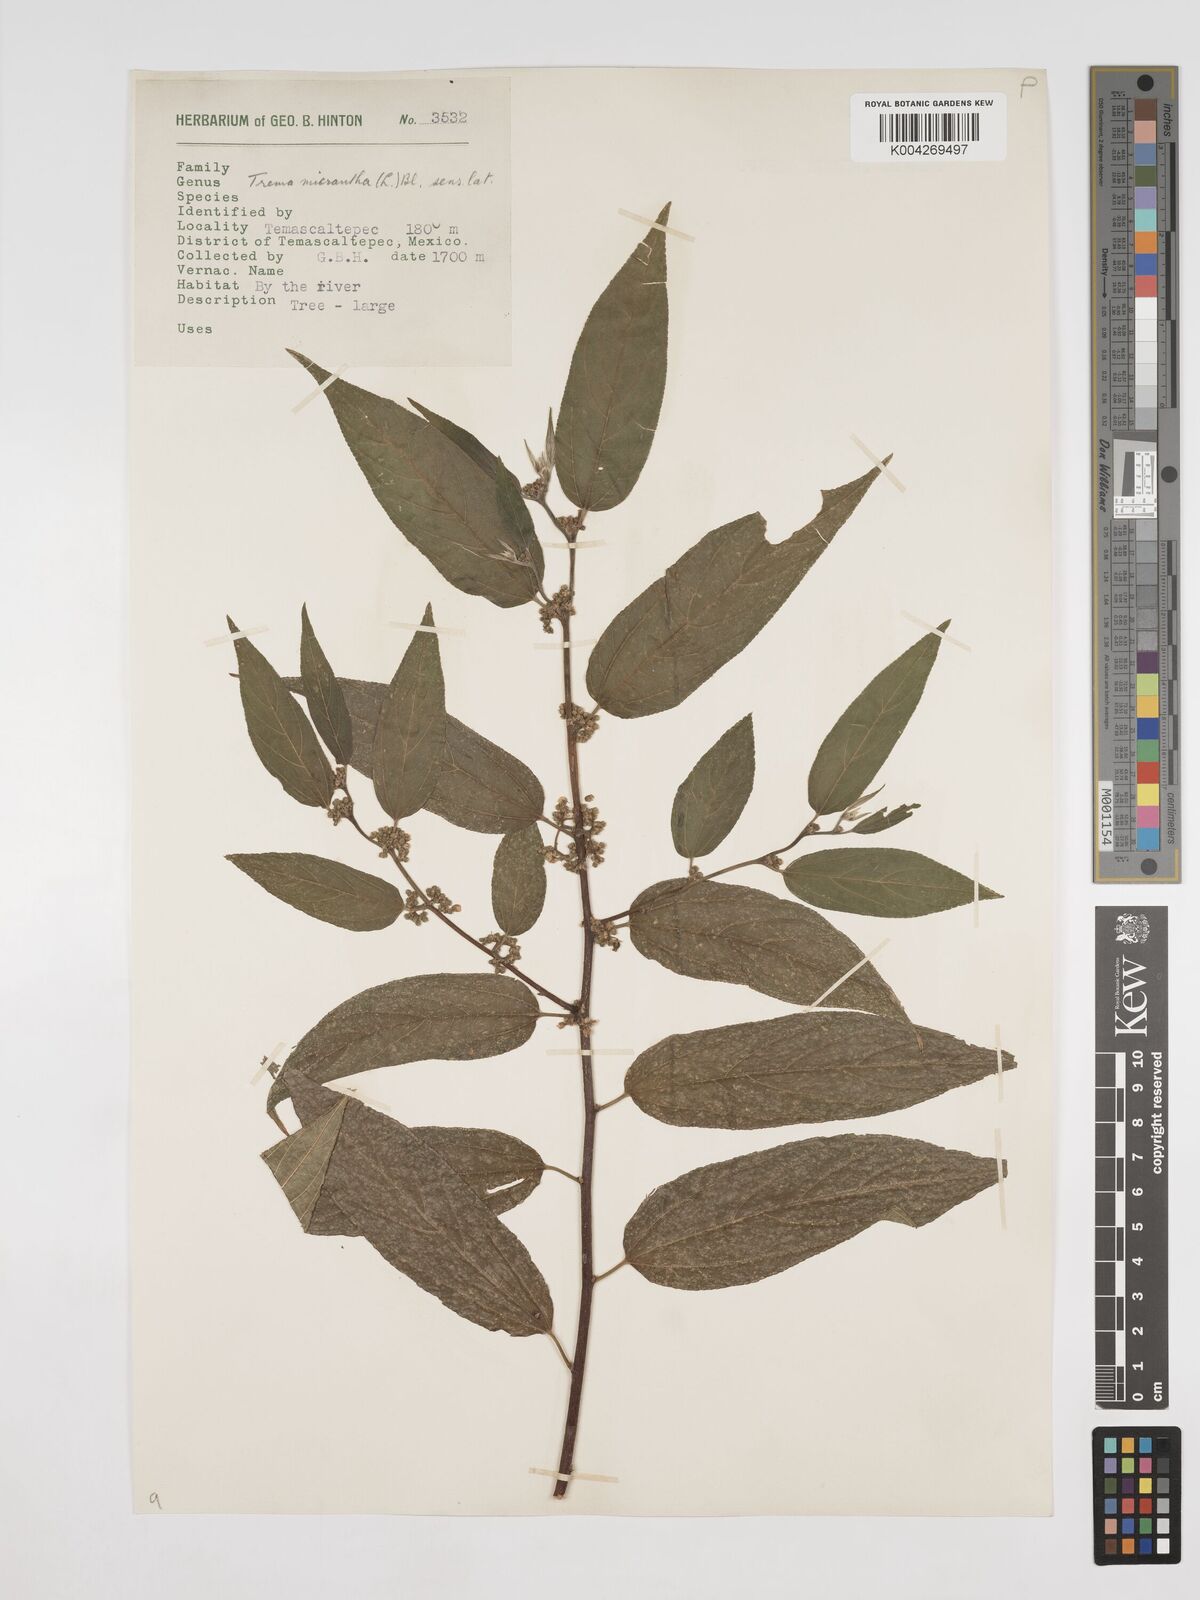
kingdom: Plantae
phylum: Tracheophyta
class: Magnoliopsida
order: Rosales
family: Cannabaceae
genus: Trema
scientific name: Trema micranthum
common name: Jamaican nettletree
